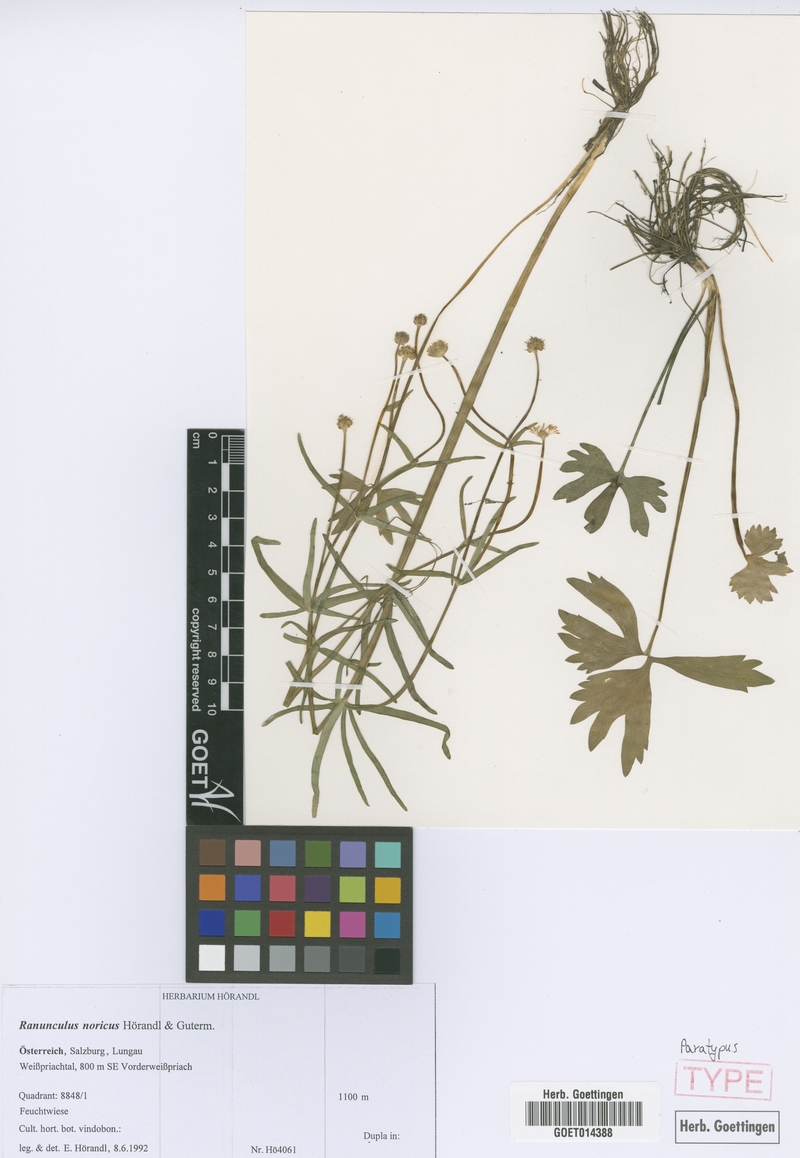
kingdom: Plantae
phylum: Tracheophyta
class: Magnoliopsida
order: Ranunculales
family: Ranunculaceae
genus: Ranunculus
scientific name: Ranunculus noricus
